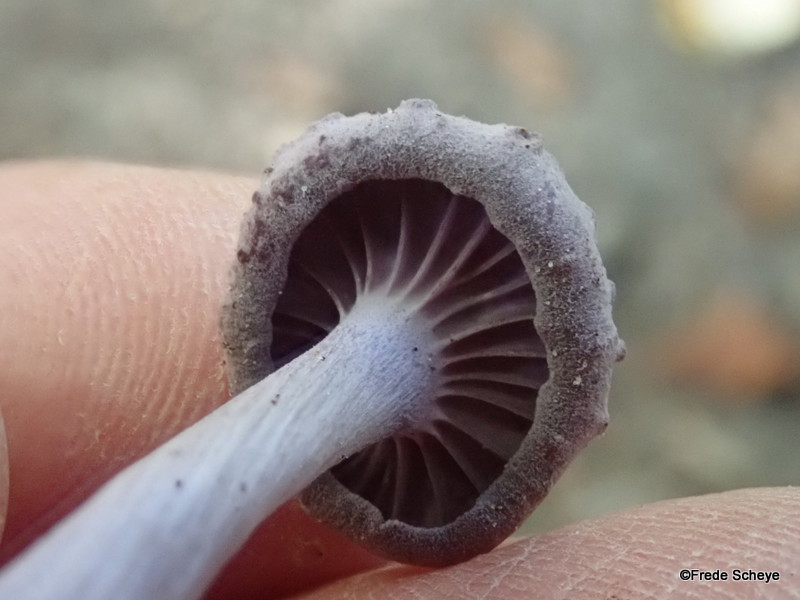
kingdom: Fungi
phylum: Basidiomycota
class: Agaricomycetes
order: Agaricales
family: Hydnangiaceae
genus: Laccaria
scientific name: Laccaria amethystina
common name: violet ametysthat
